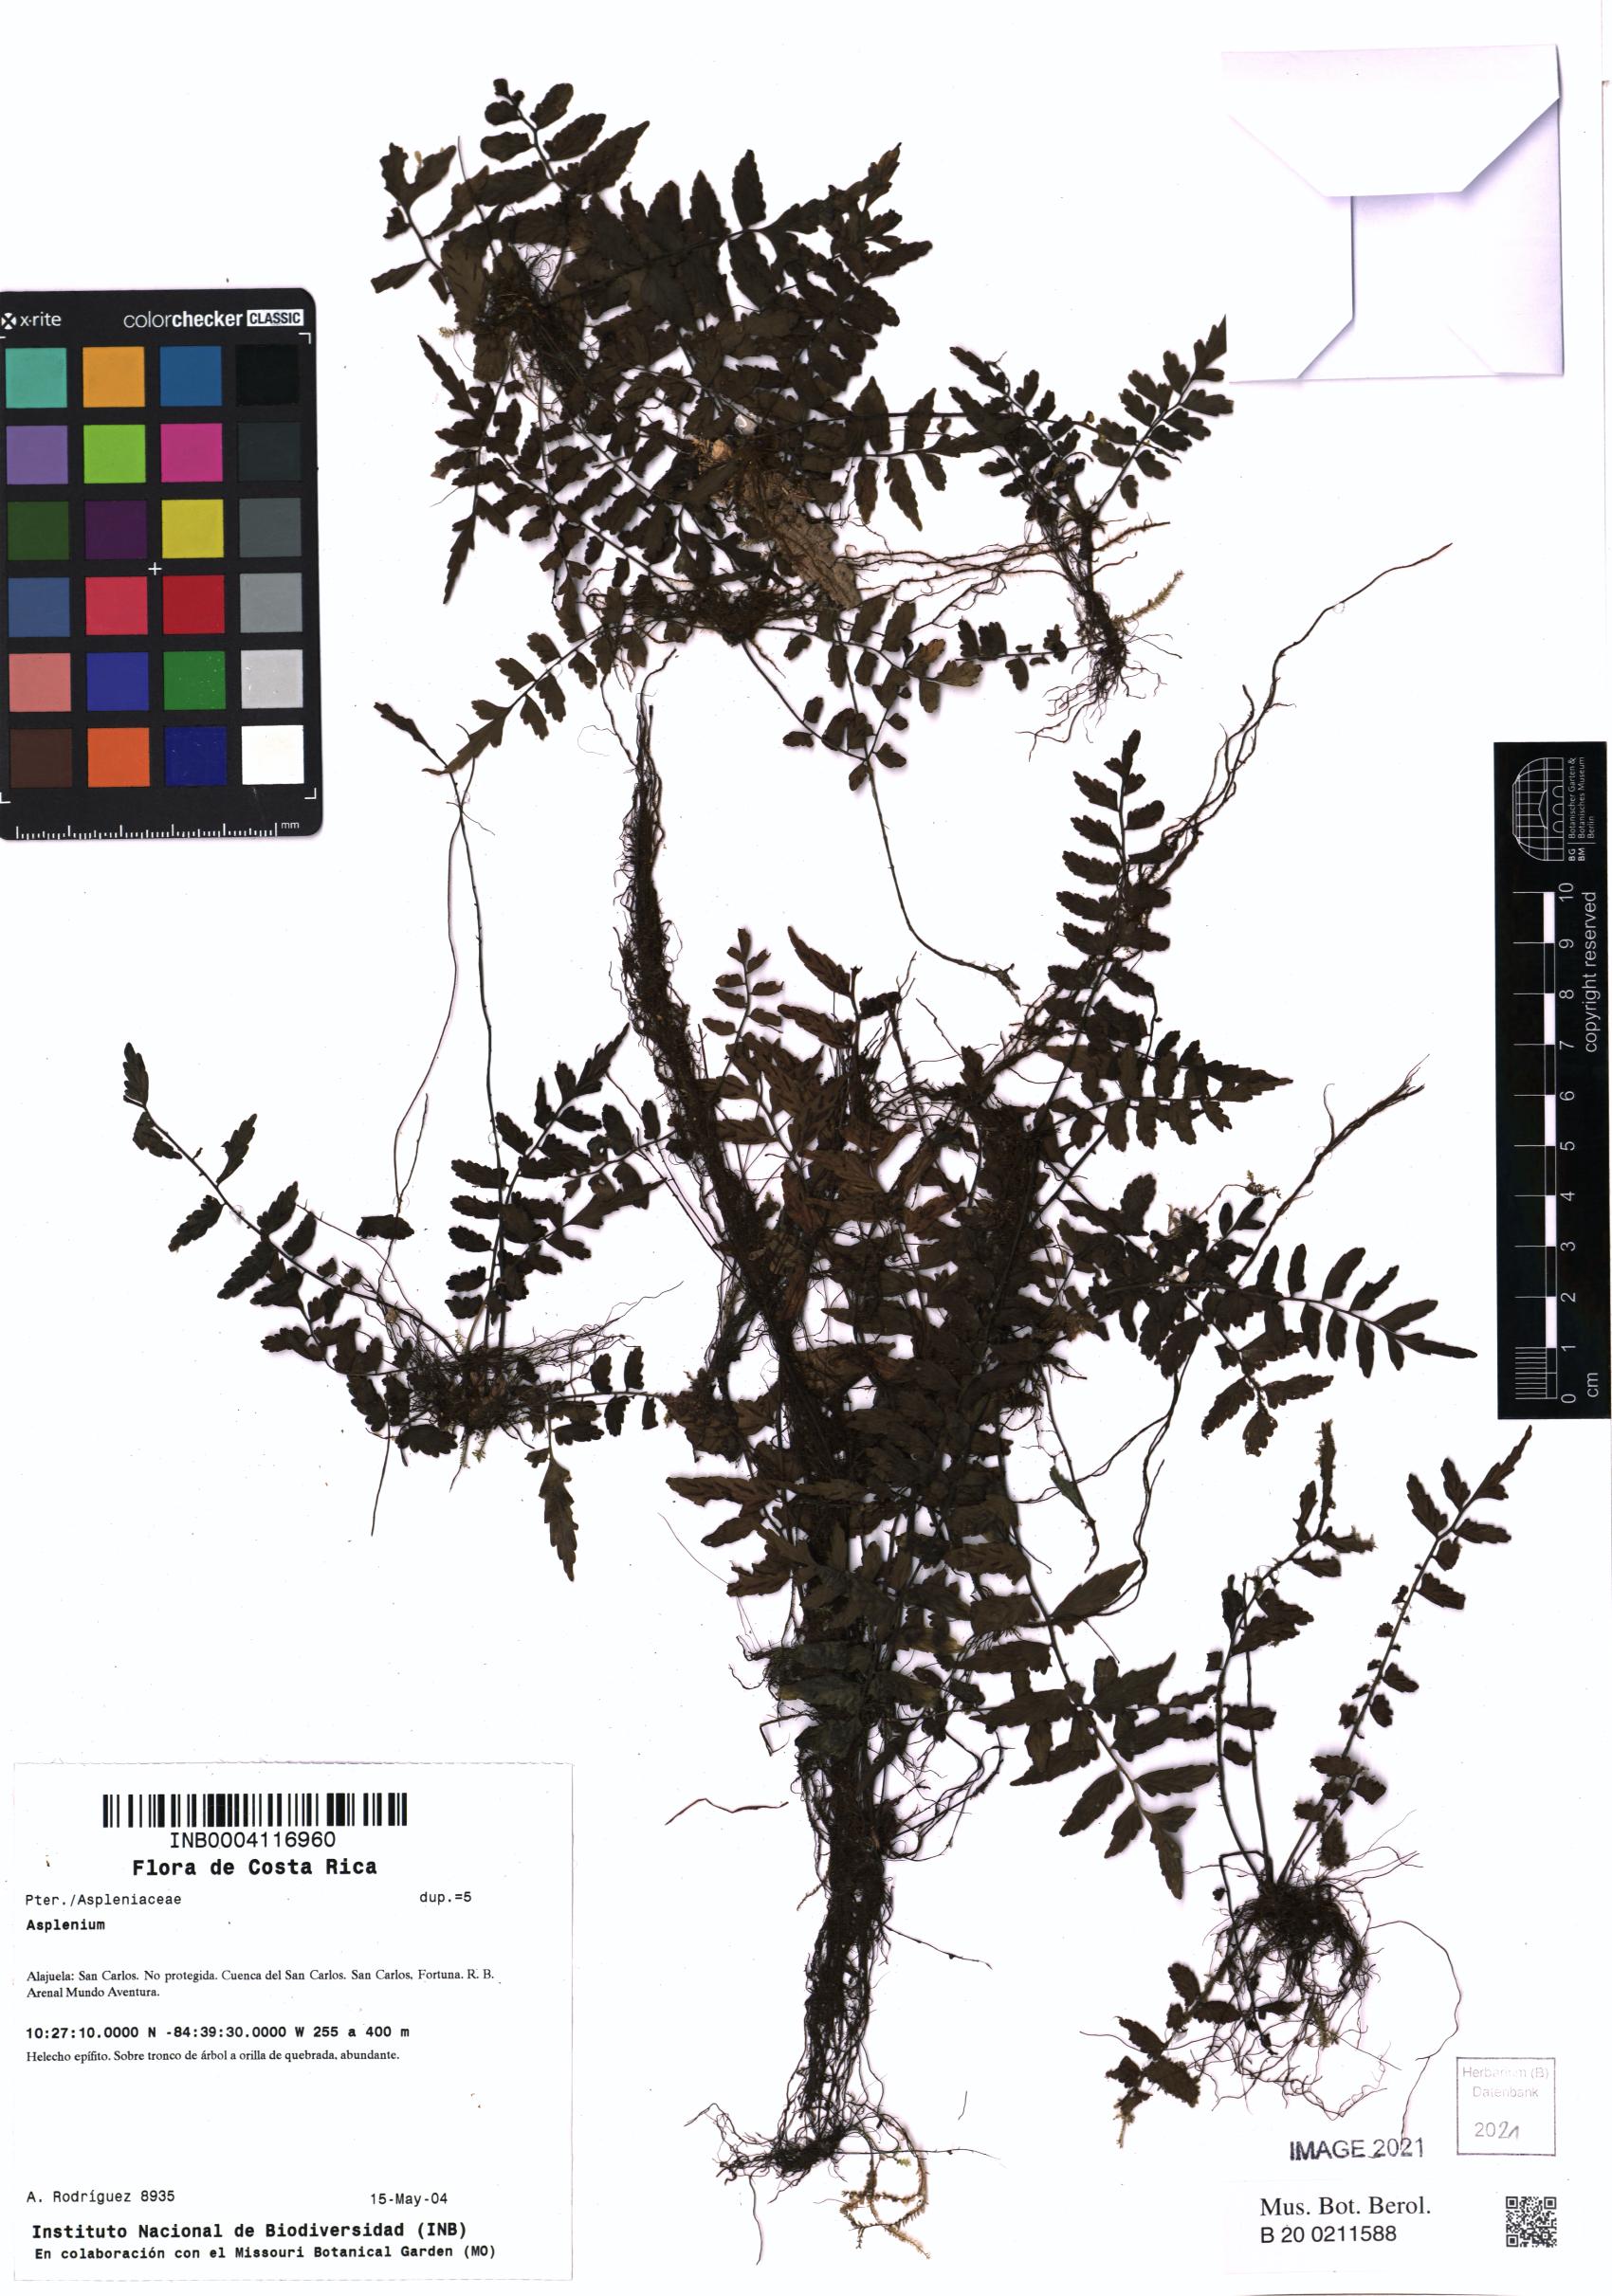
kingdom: Plantae
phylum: Tracheophyta
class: Polypodiopsida
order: Polypodiales
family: Aspleniaceae
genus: Asplenium
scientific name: Asplenium auriculatum
